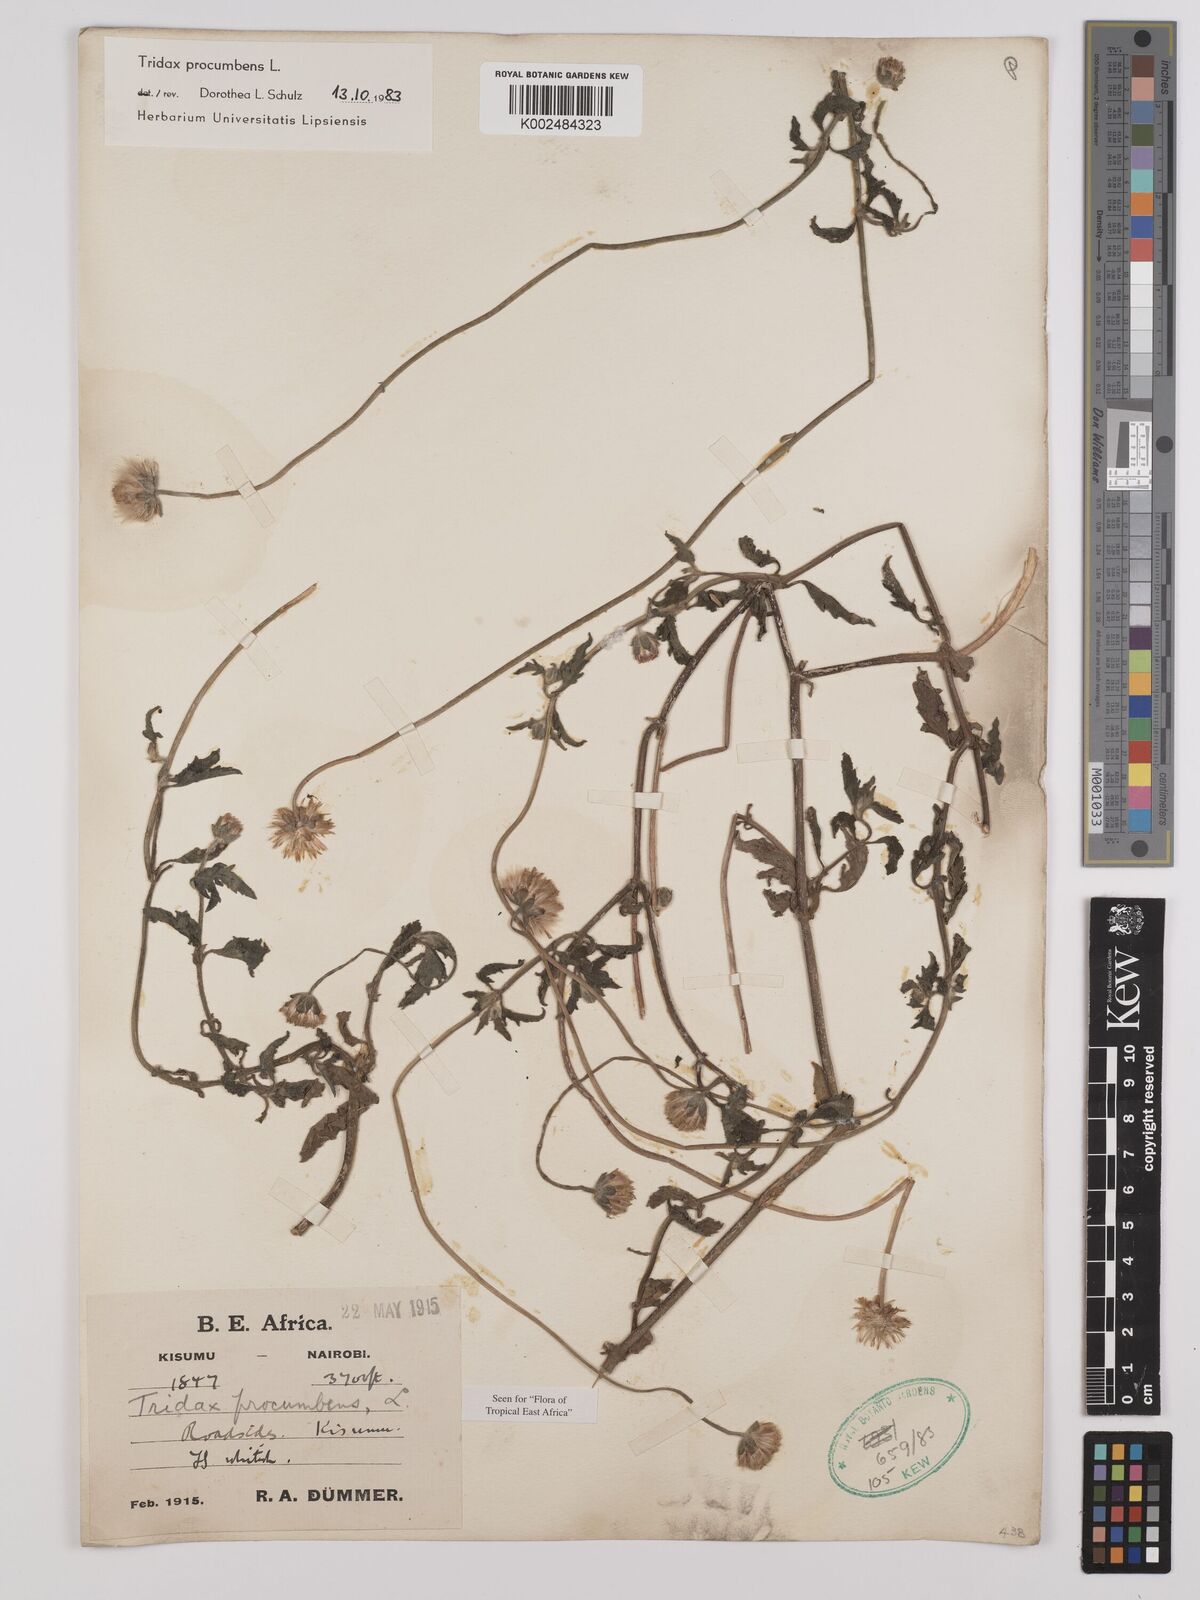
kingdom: Plantae
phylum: Tracheophyta
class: Magnoliopsida
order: Asterales
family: Asteraceae
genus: Tridax
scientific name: Tridax procumbens
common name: Coatbuttons
